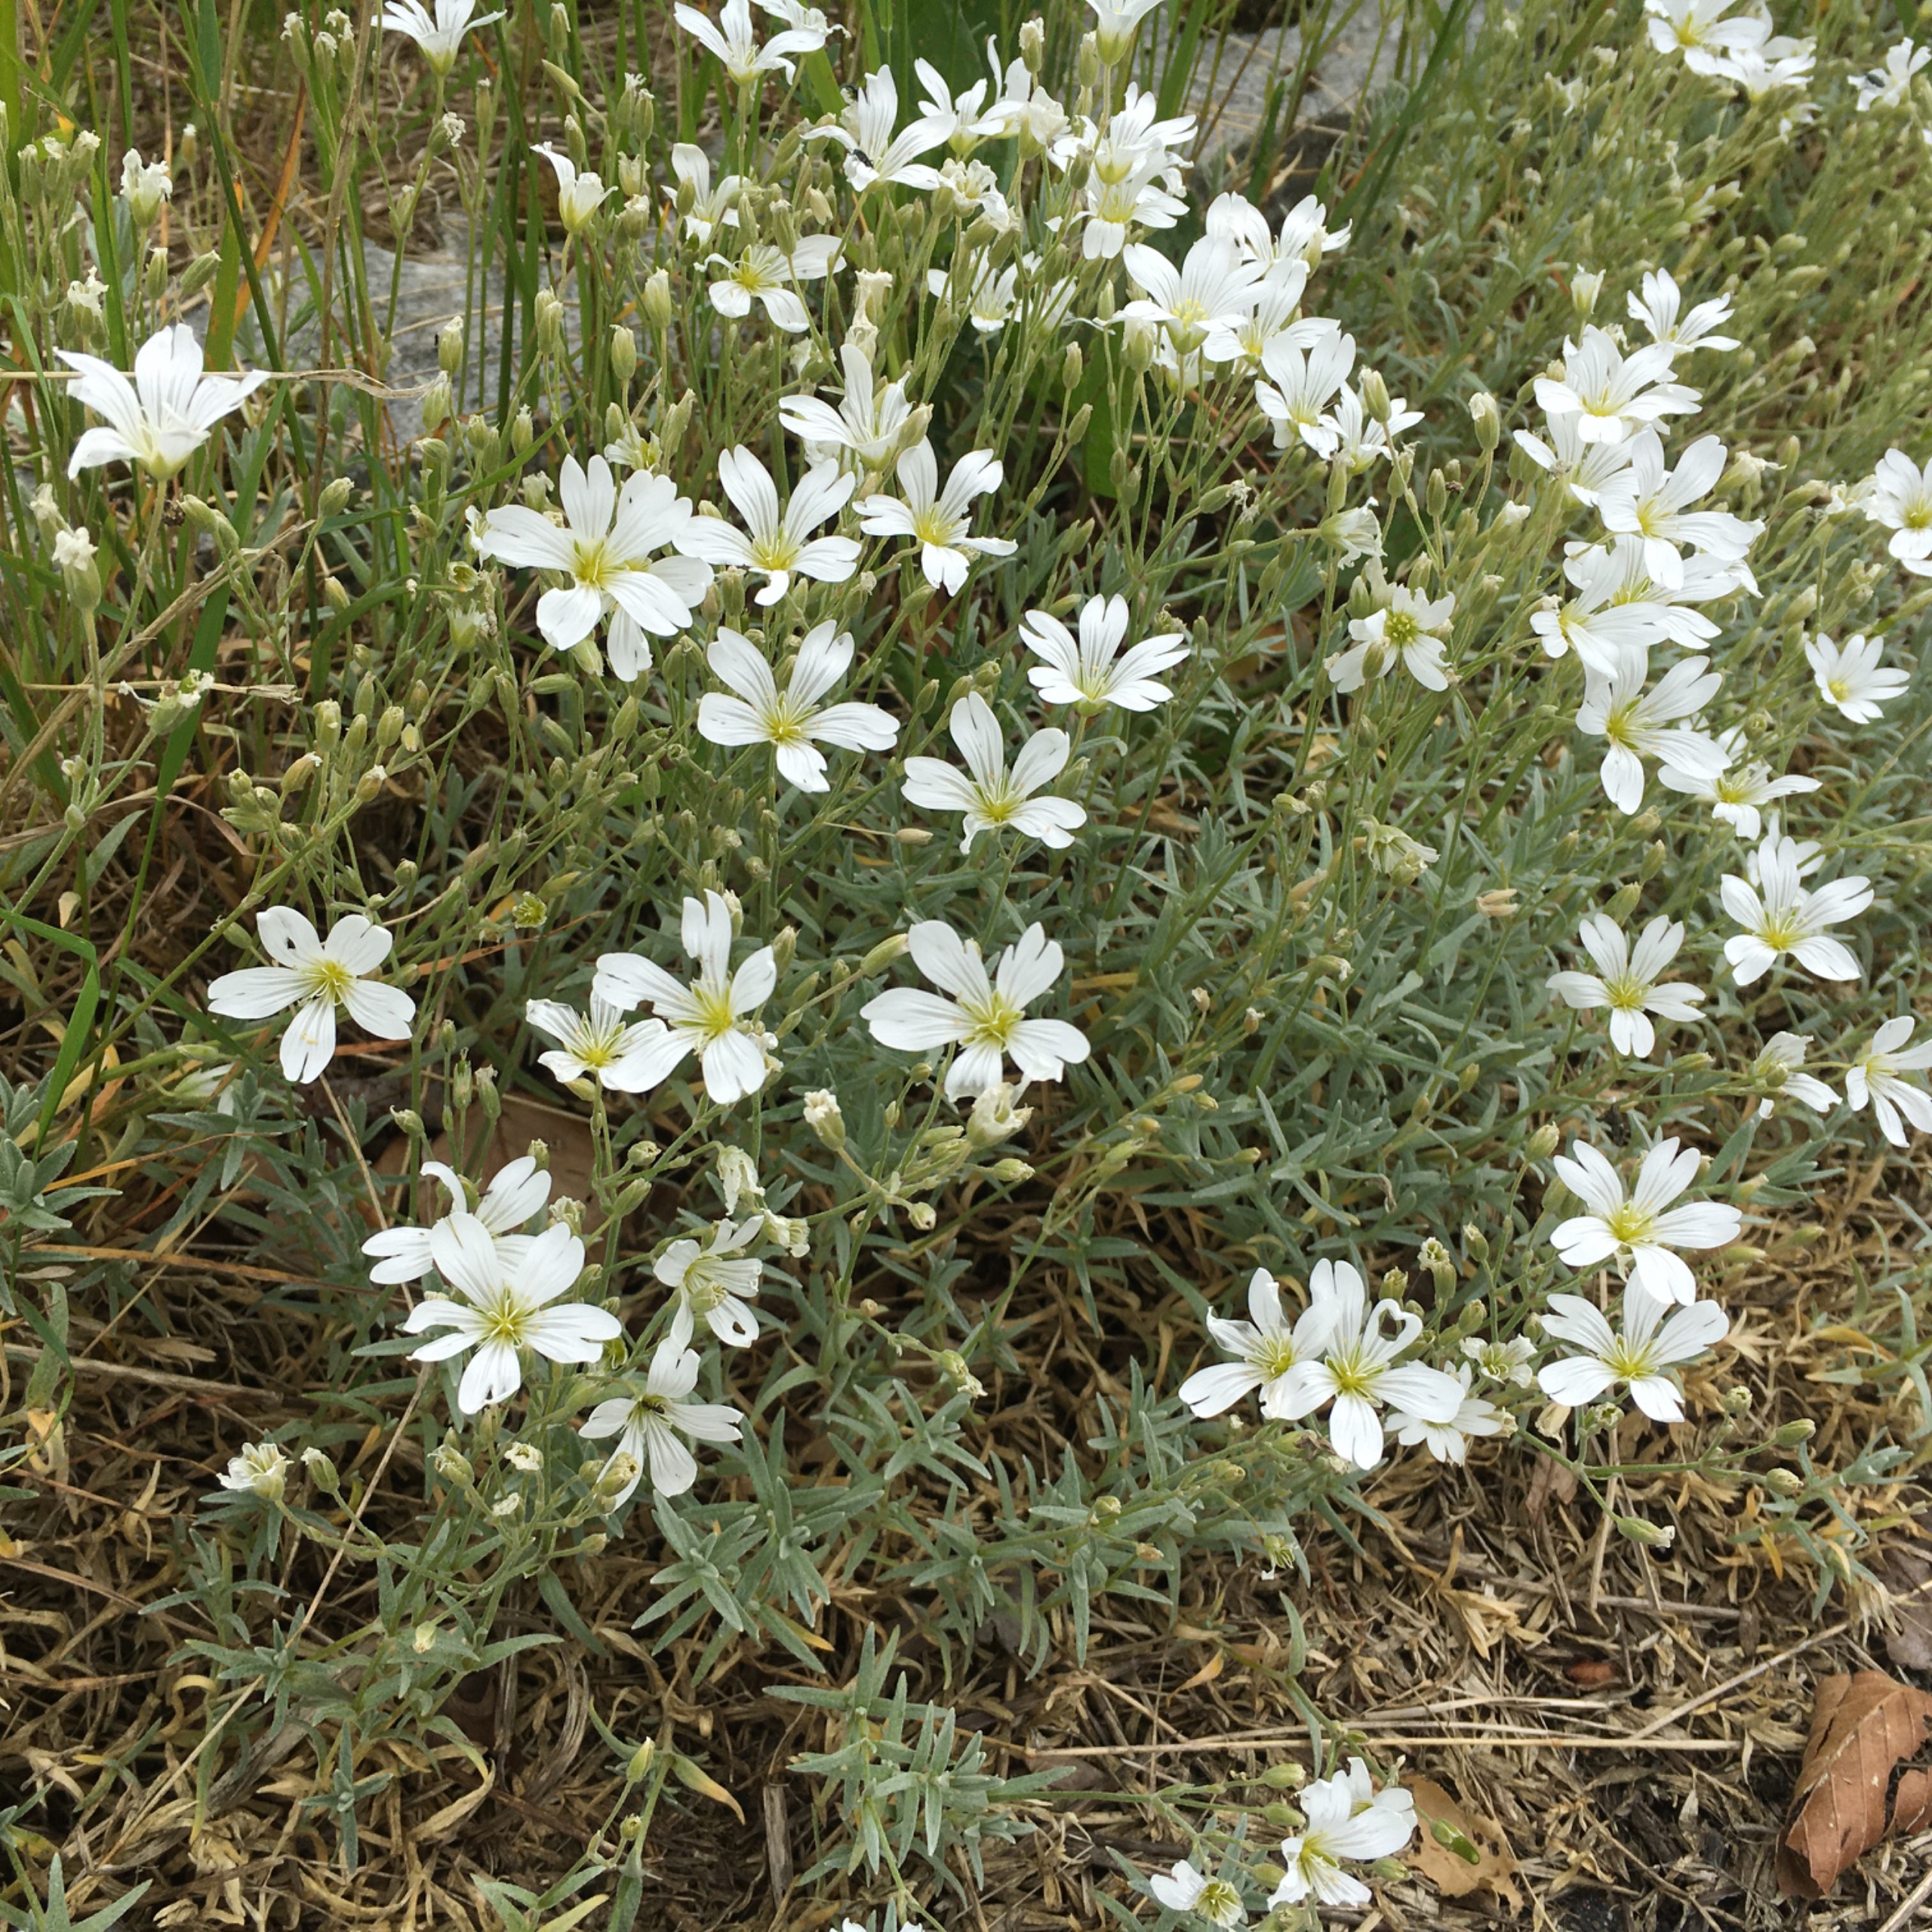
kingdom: Plantae
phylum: Tracheophyta
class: Magnoliopsida
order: Caryophyllales
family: Caryophyllaceae
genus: Cerastium
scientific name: Cerastium
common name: Storblomstret hønsetarm × filtet hønsetarm
